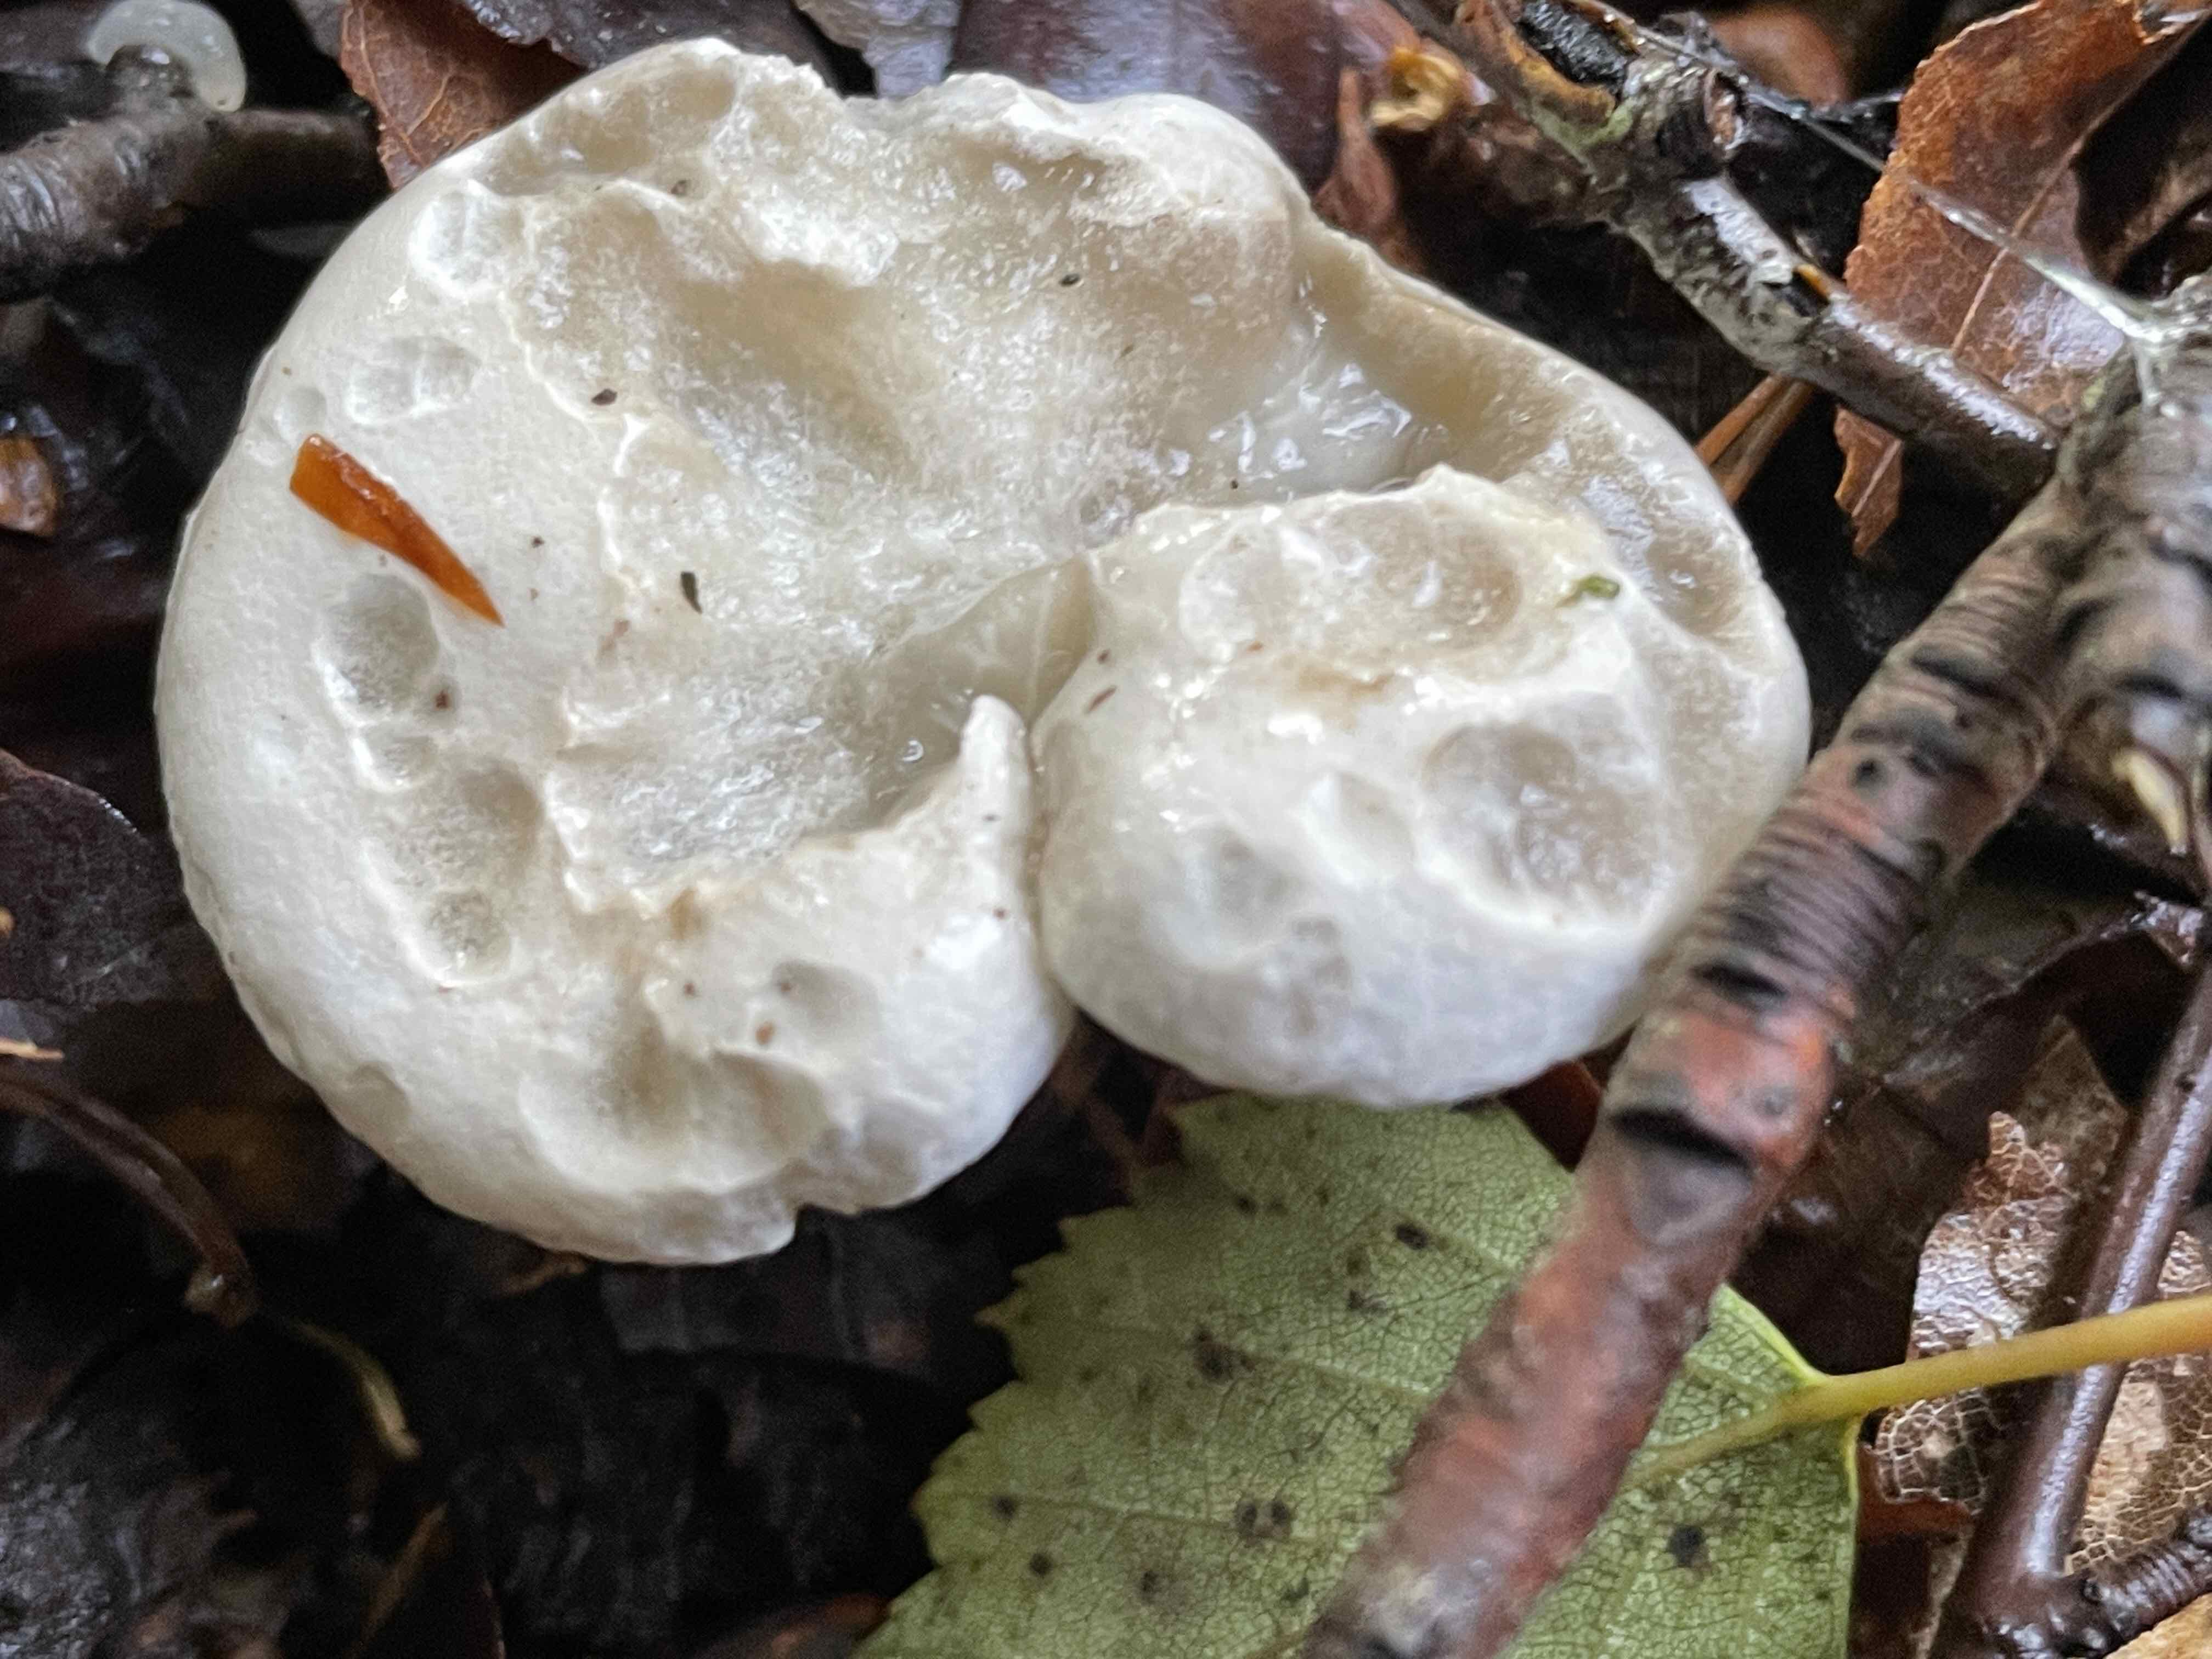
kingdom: Fungi
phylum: Basidiomycota
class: Agaricomycetes
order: Agaricales
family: Entolomataceae
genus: Clitopilus
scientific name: Clitopilus prunulus
